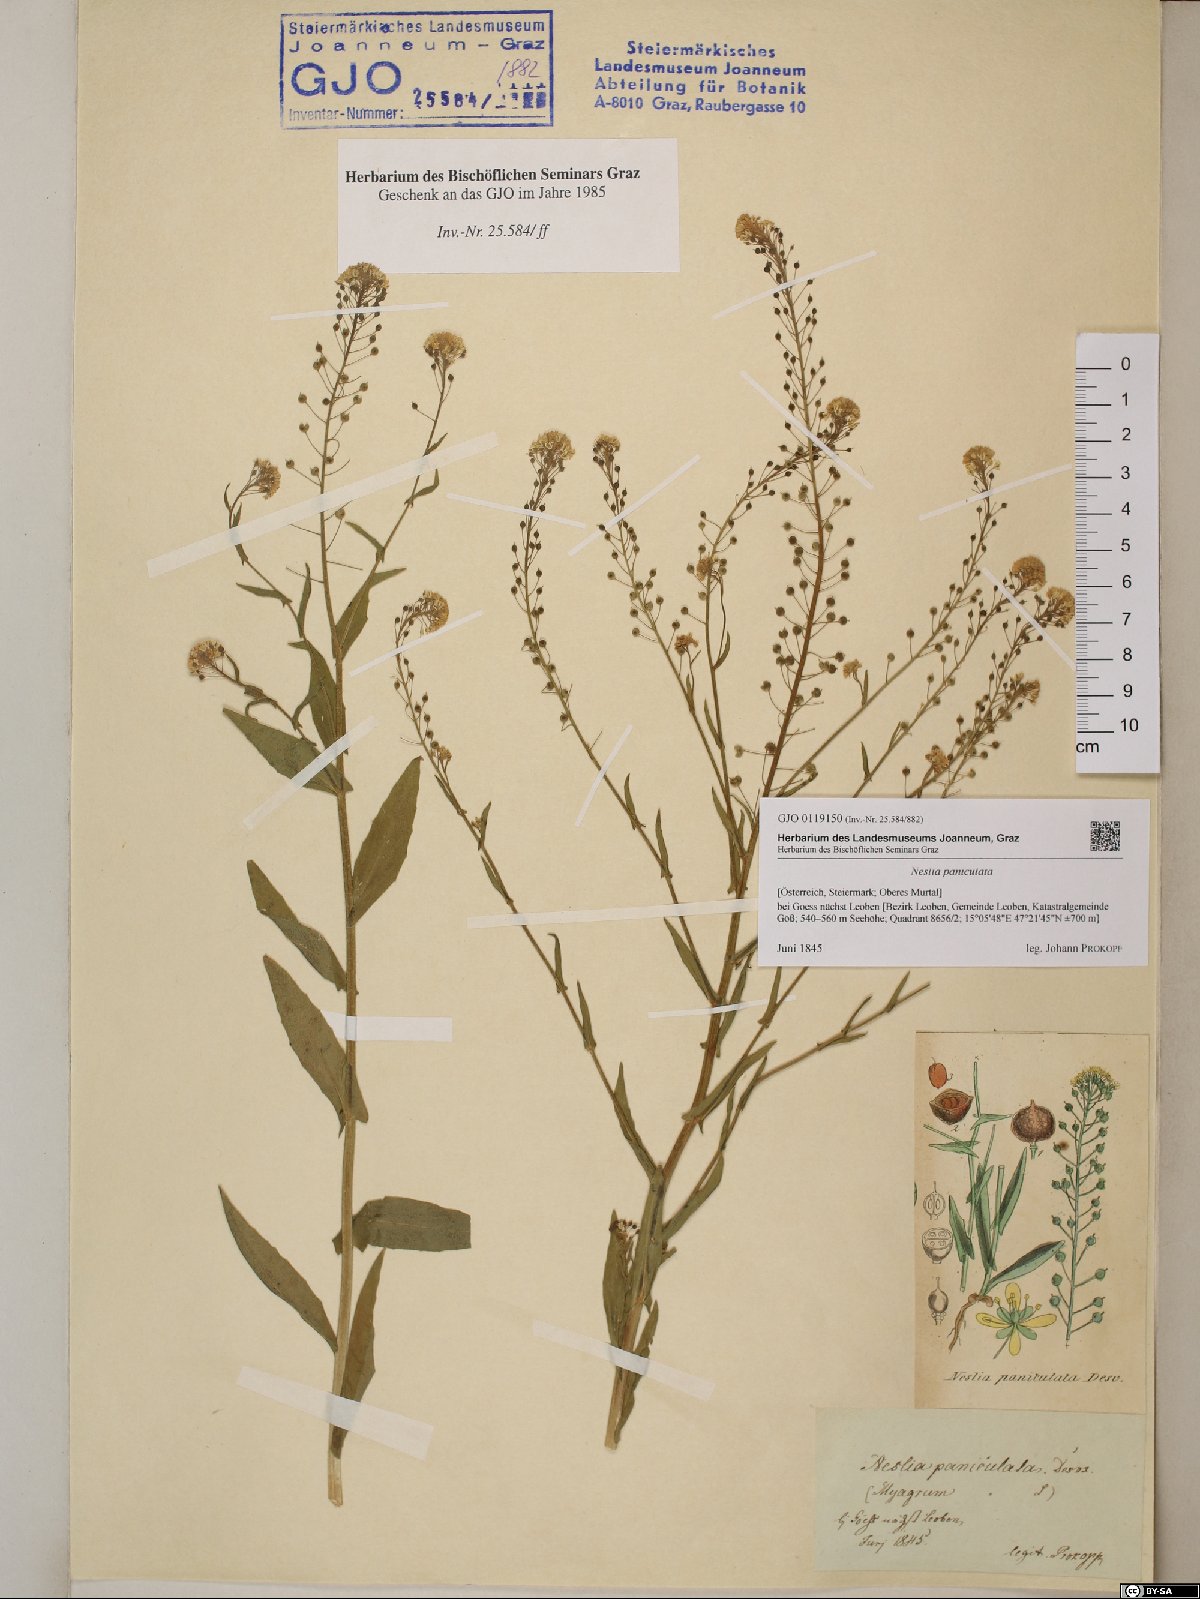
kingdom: Plantae
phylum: Tracheophyta
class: Magnoliopsida
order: Brassicales
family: Brassicaceae
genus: Neslia
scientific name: Neslia paniculata
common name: Ball mustard
